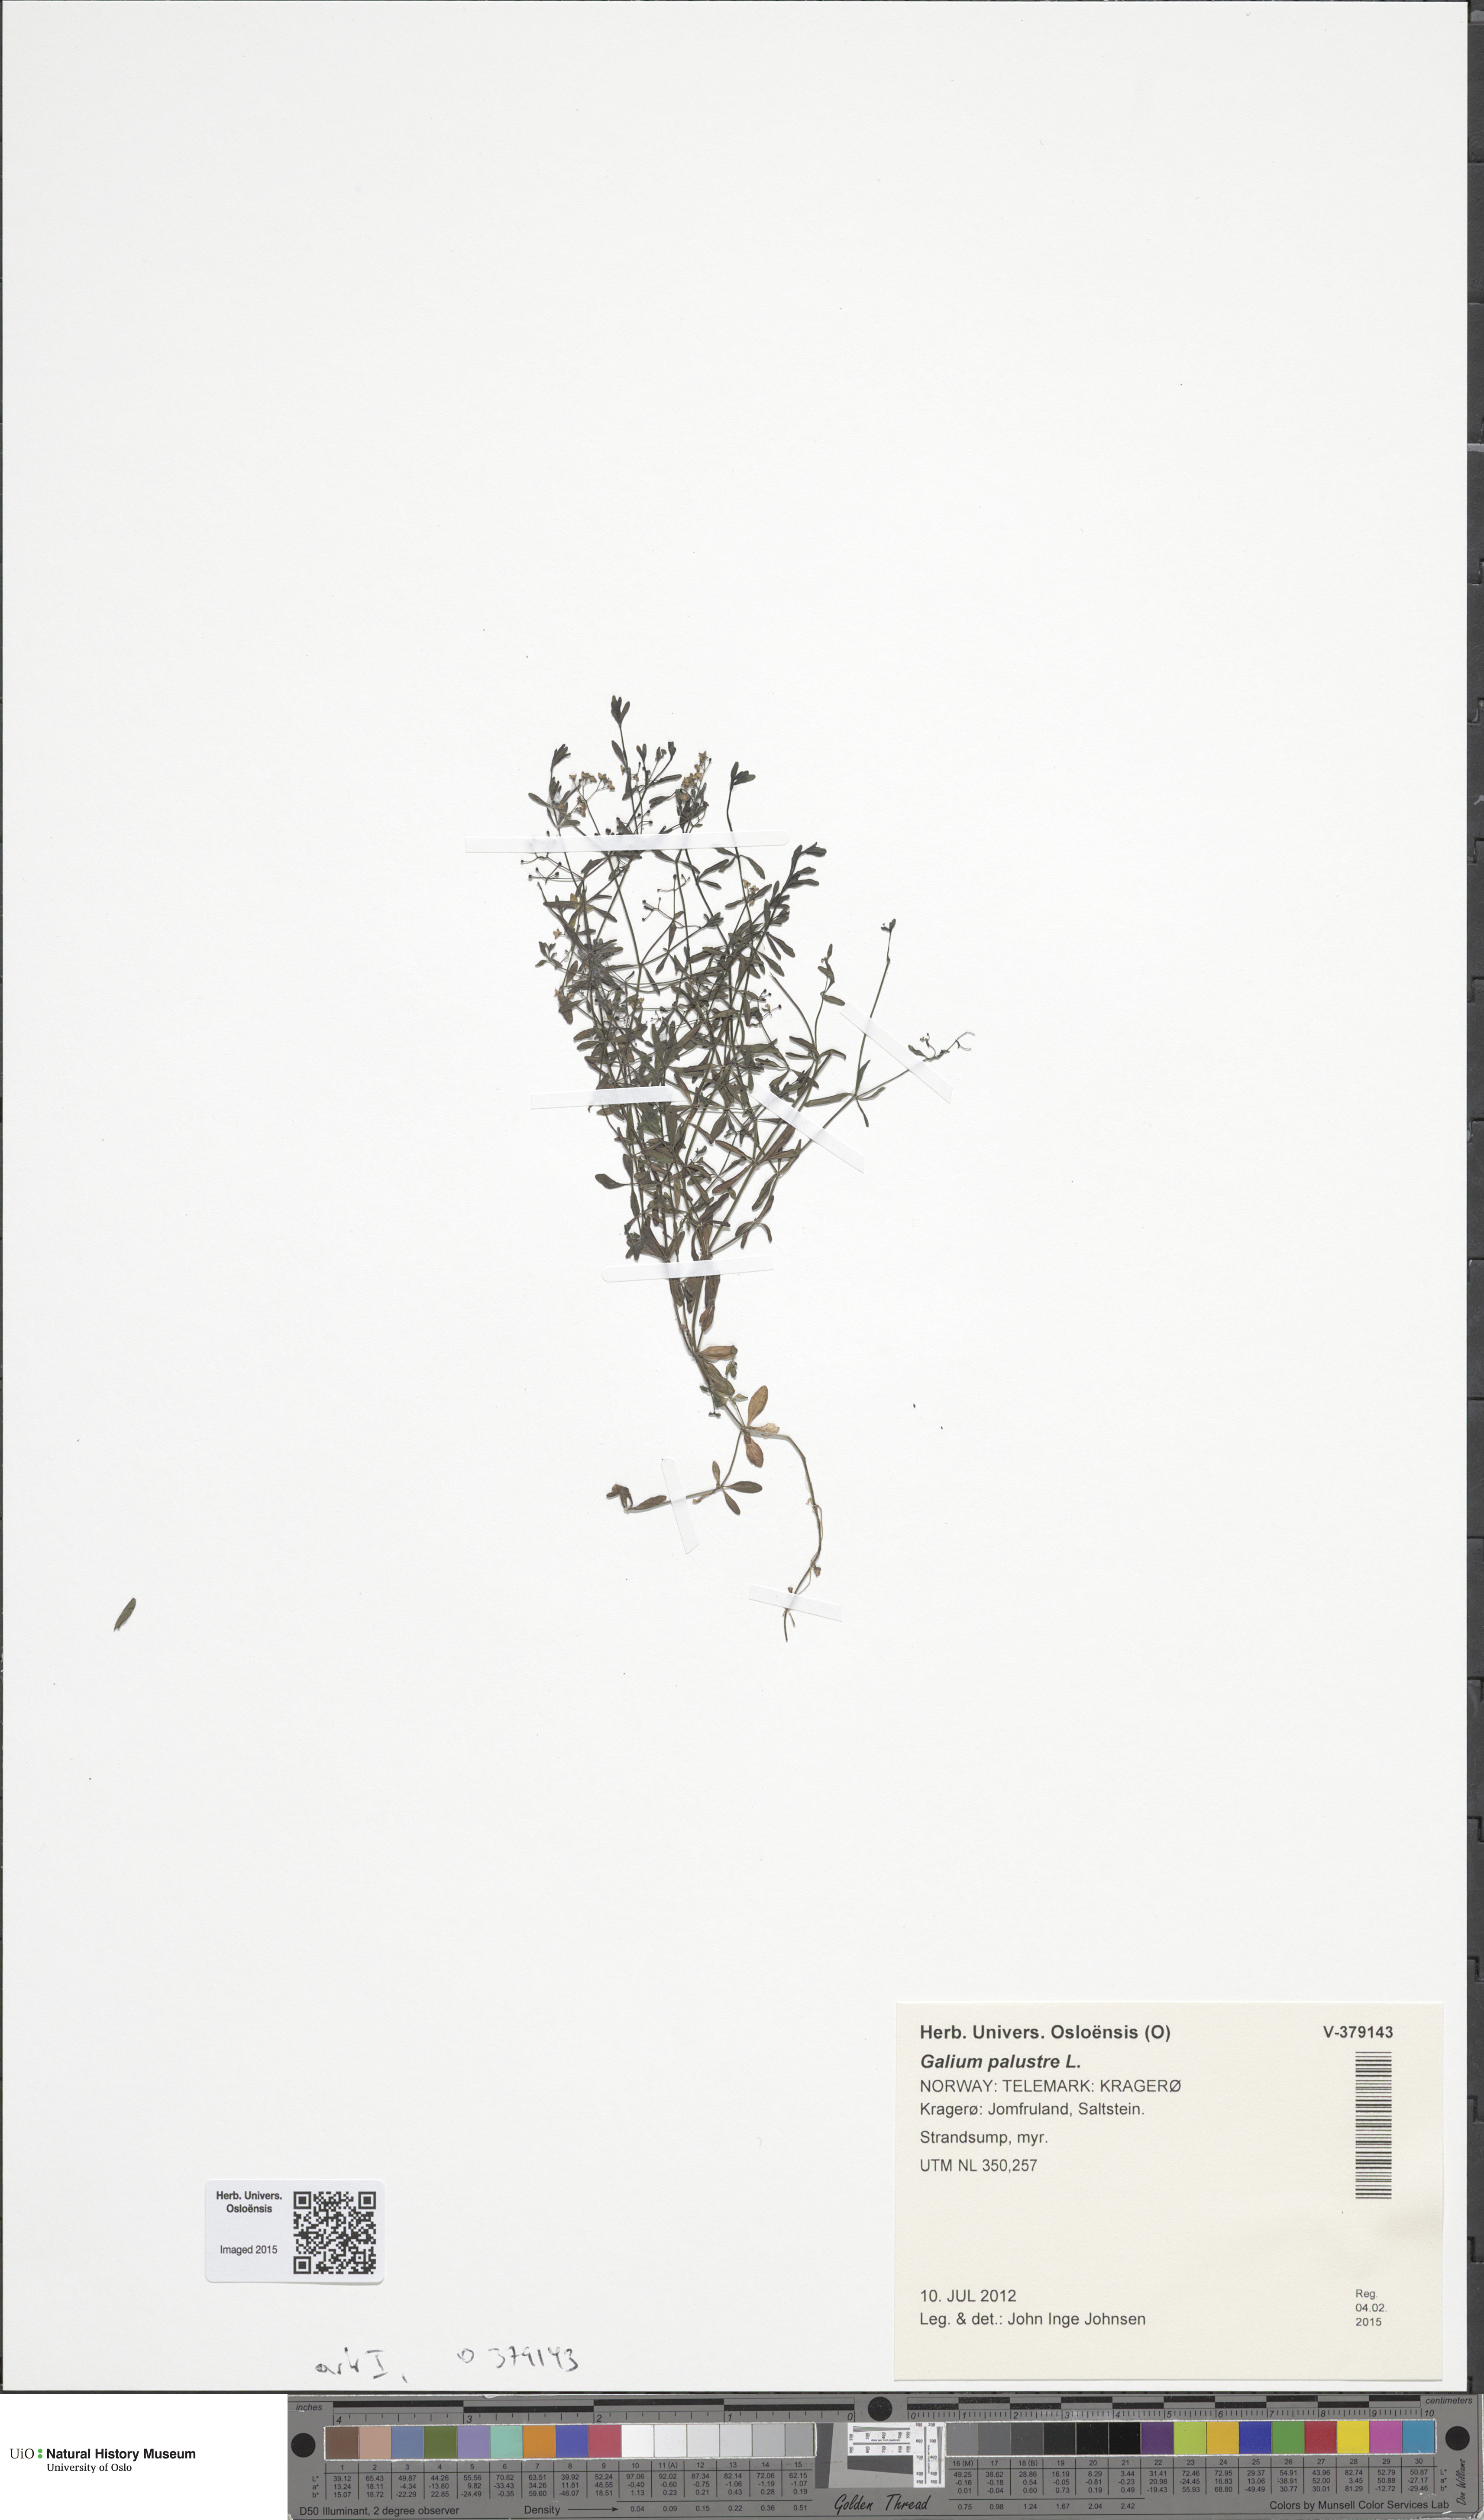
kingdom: Plantae
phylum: Tracheophyta
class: Magnoliopsida
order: Gentianales
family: Rubiaceae
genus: Galium
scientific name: Galium palustre
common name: Common marsh-bedstraw
